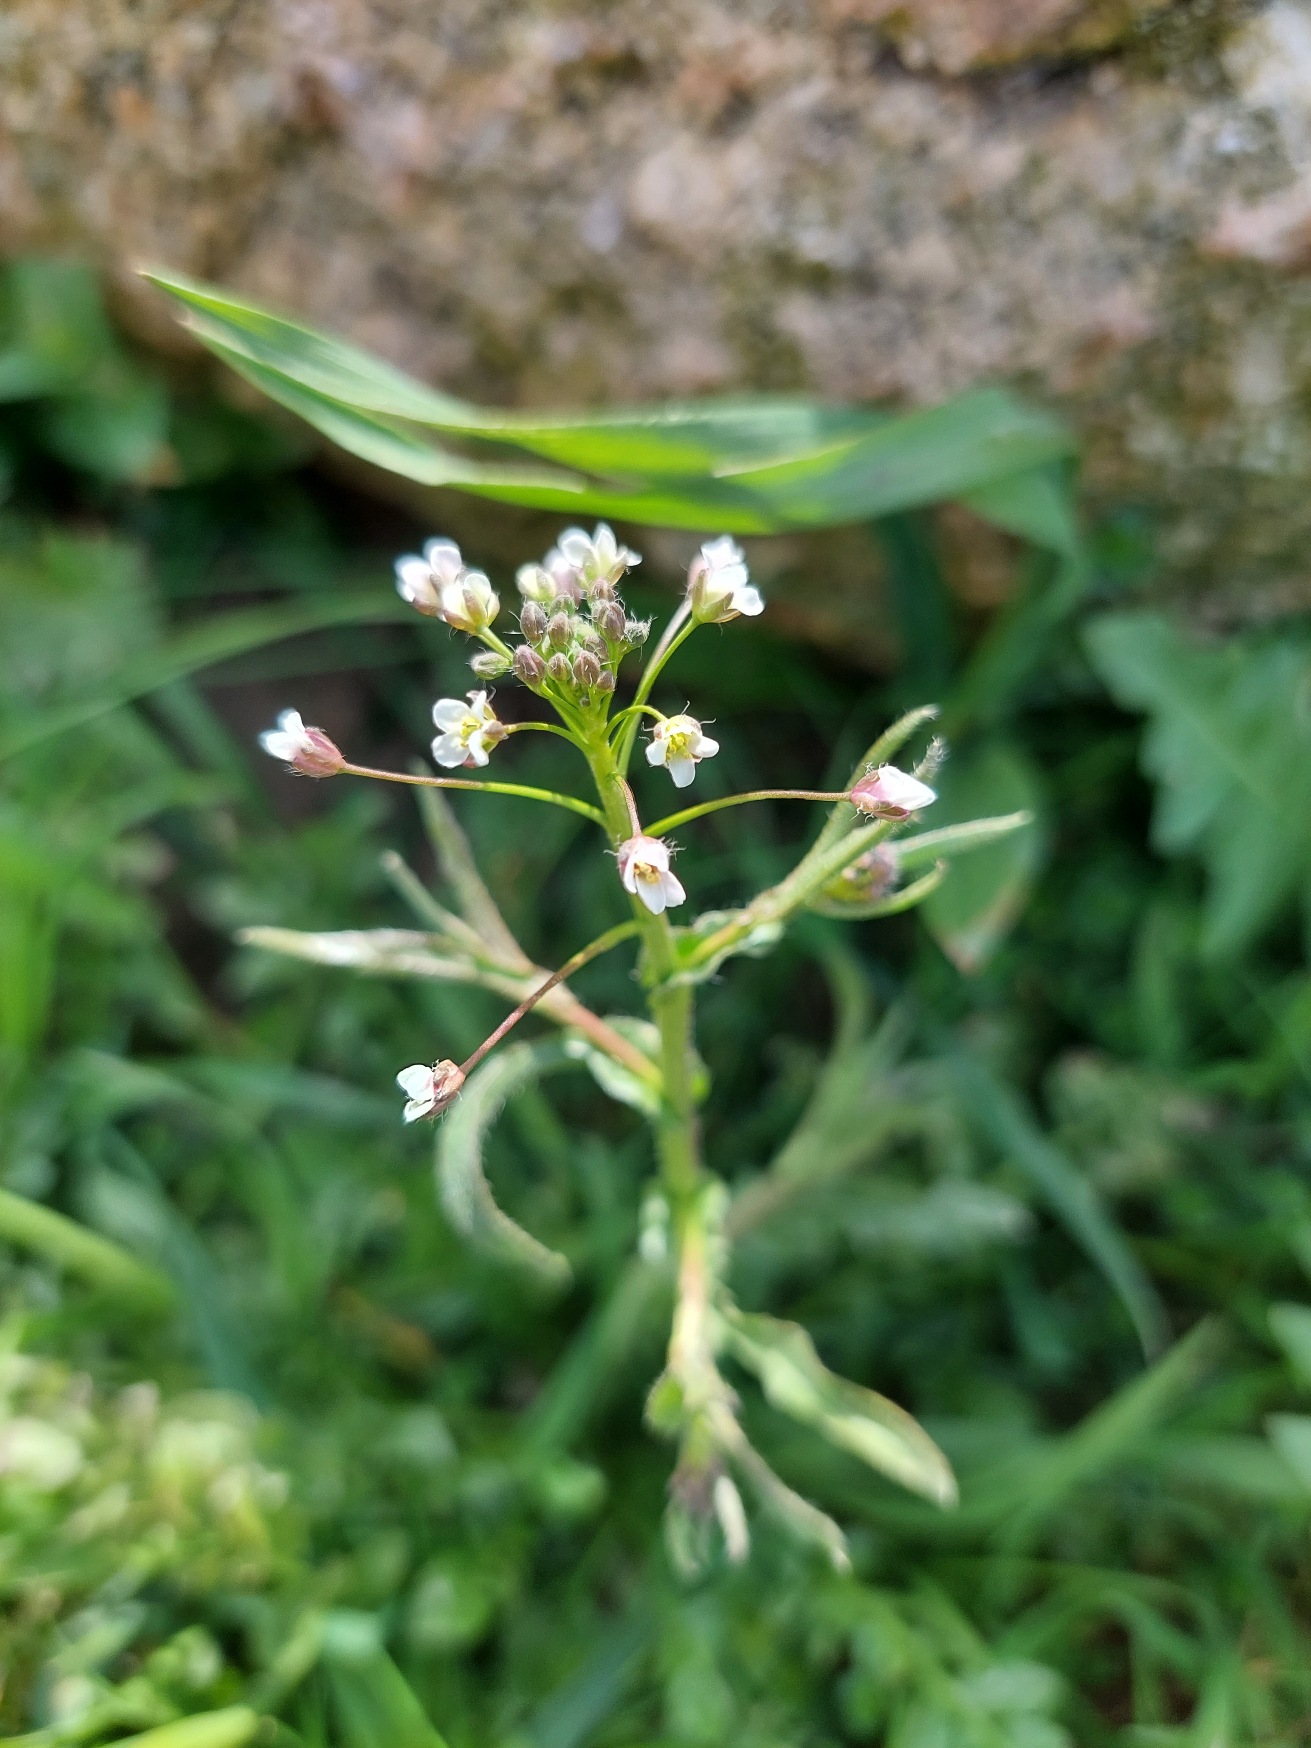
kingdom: Plantae
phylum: Tracheophyta
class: Magnoliopsida
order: Brassicales
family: Brassicaceae
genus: Capsella
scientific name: Capsella bursa-pastoris
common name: Hyrdetaske
